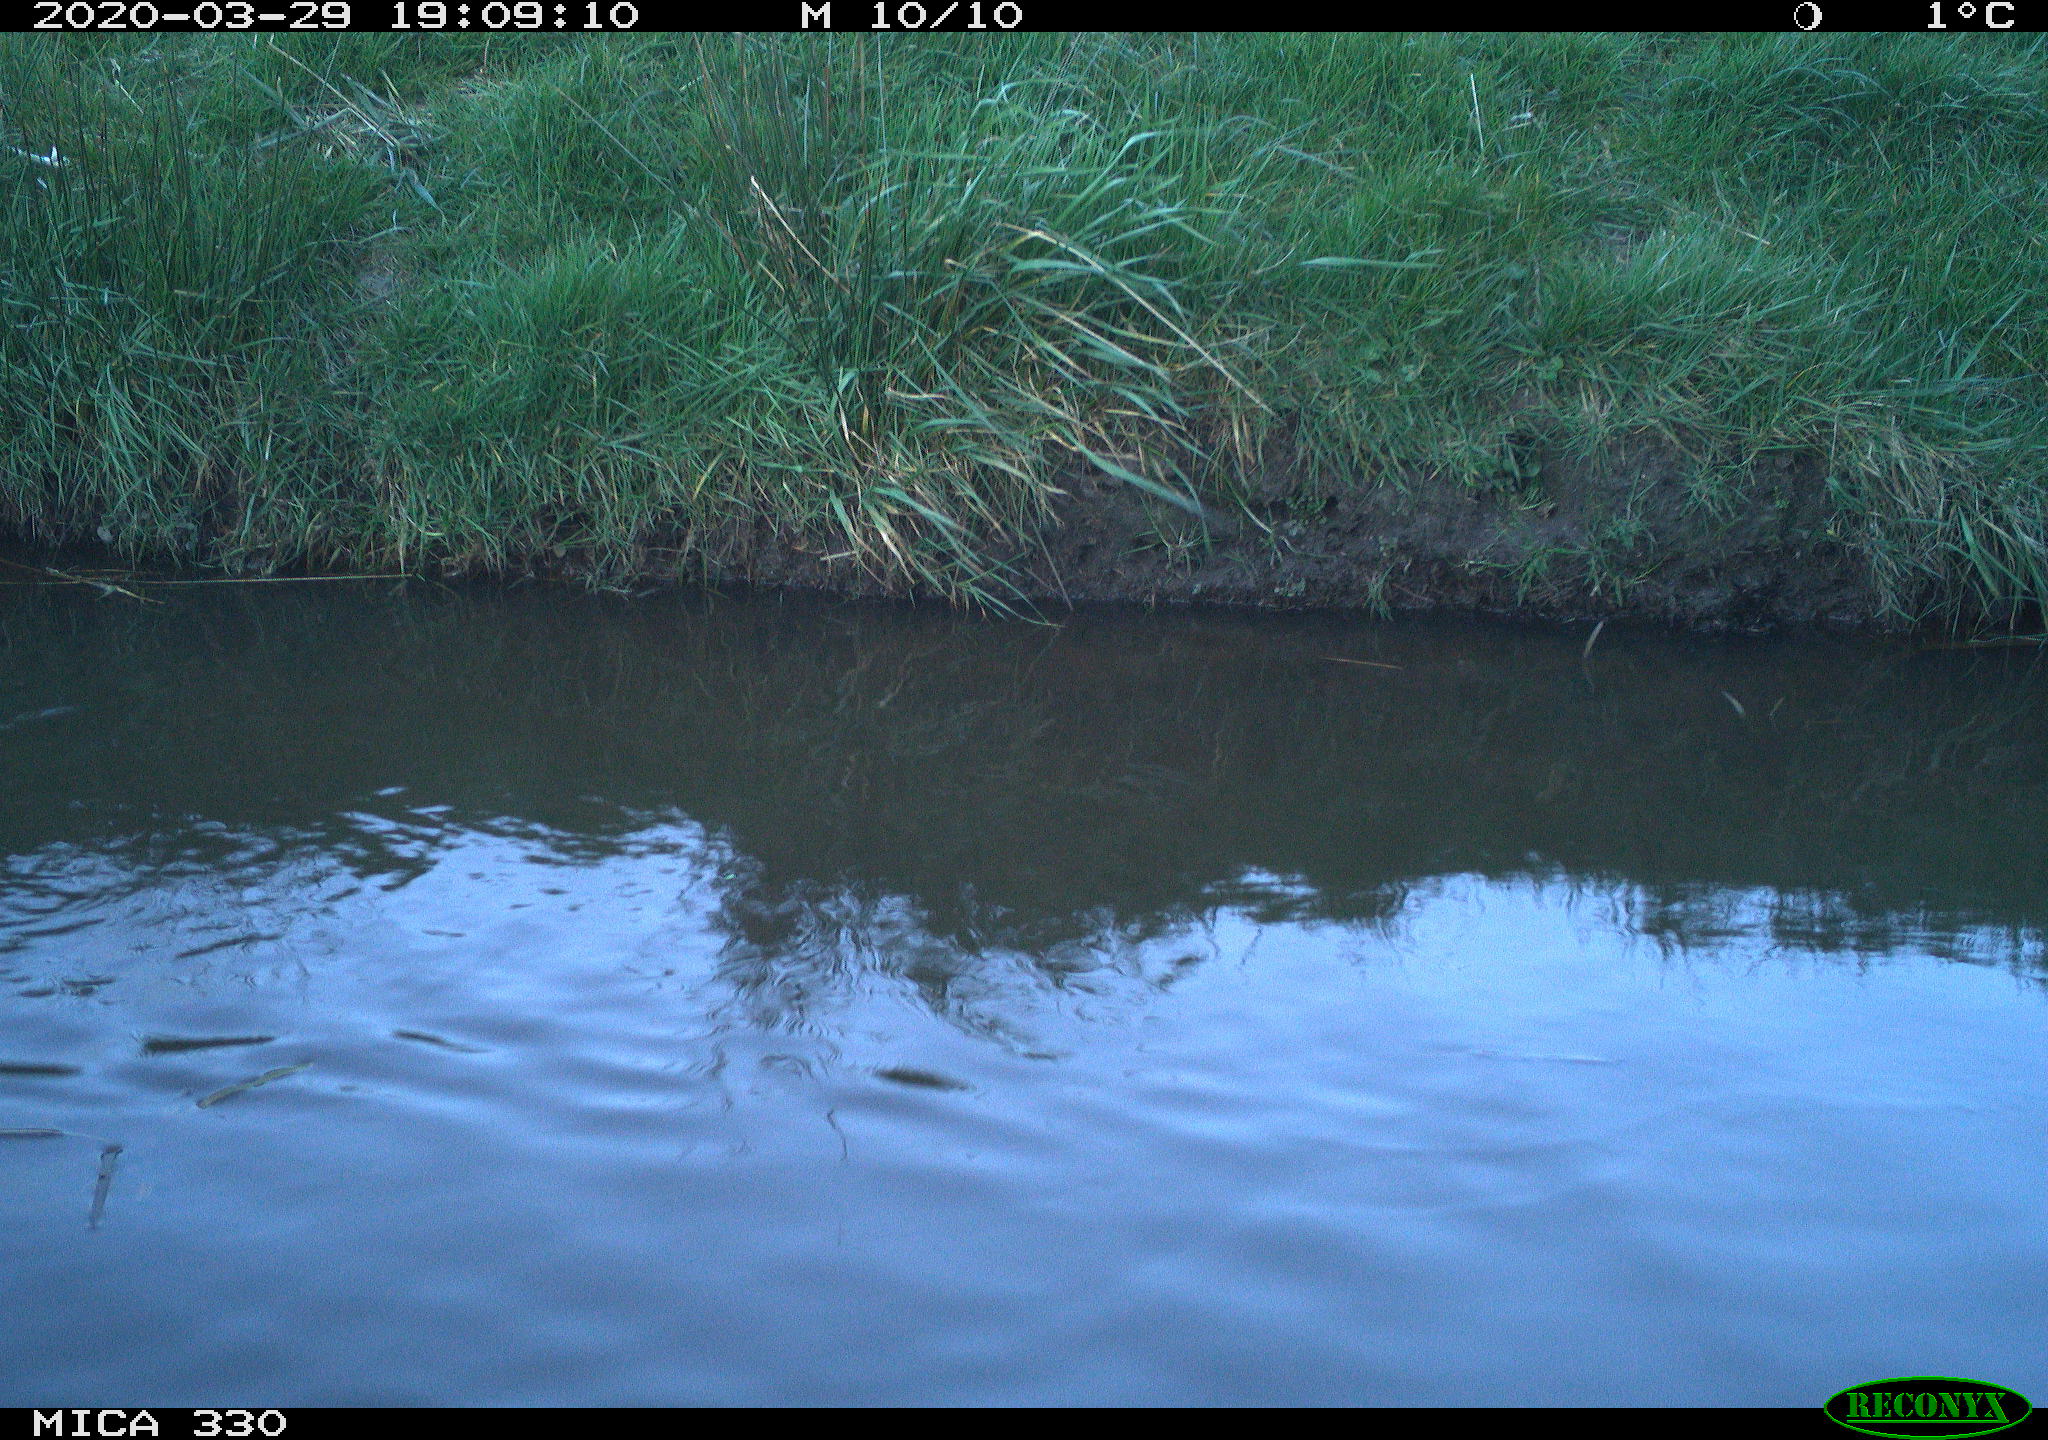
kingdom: Animalia
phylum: Chordata
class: Aves
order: Anseriformes
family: Anatidae
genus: Anas
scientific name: Anas platyrhynchos
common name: Mallard
